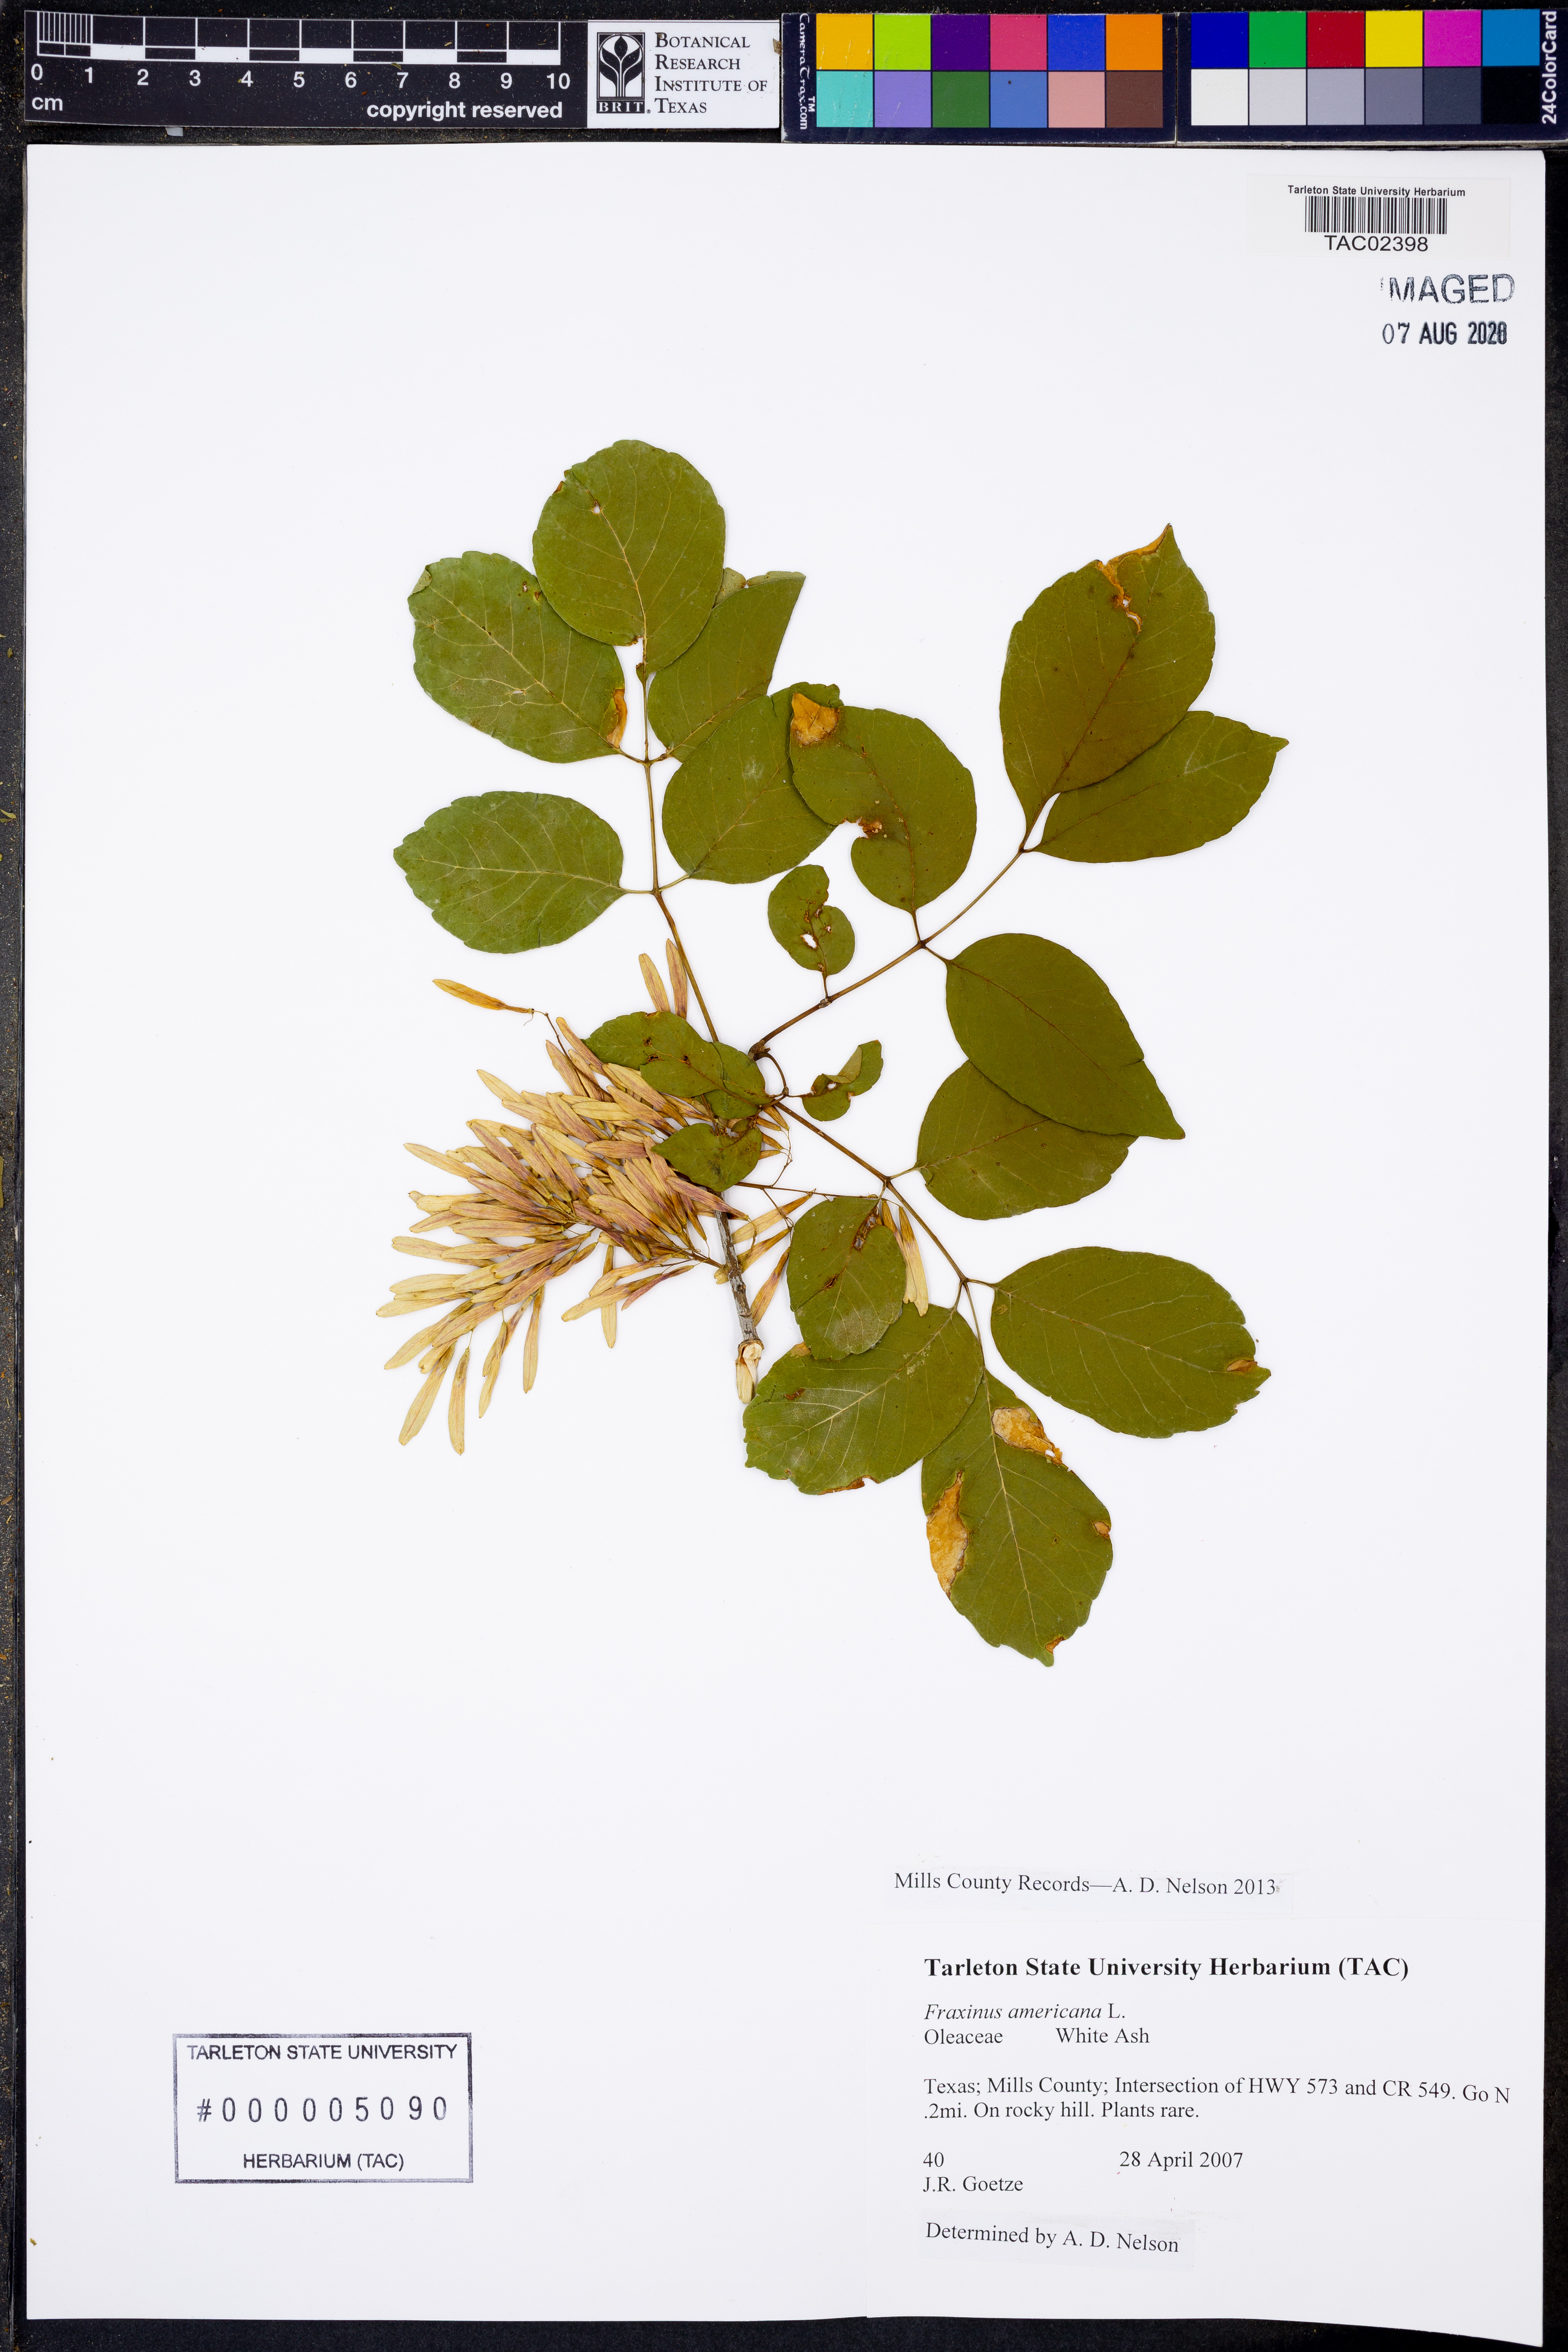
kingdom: Plantae
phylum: Tracheophyta
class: Magnoliopsida
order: Lamiales
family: Oleaceae
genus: Fraxinus
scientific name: Fraxinus americana
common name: White ash
